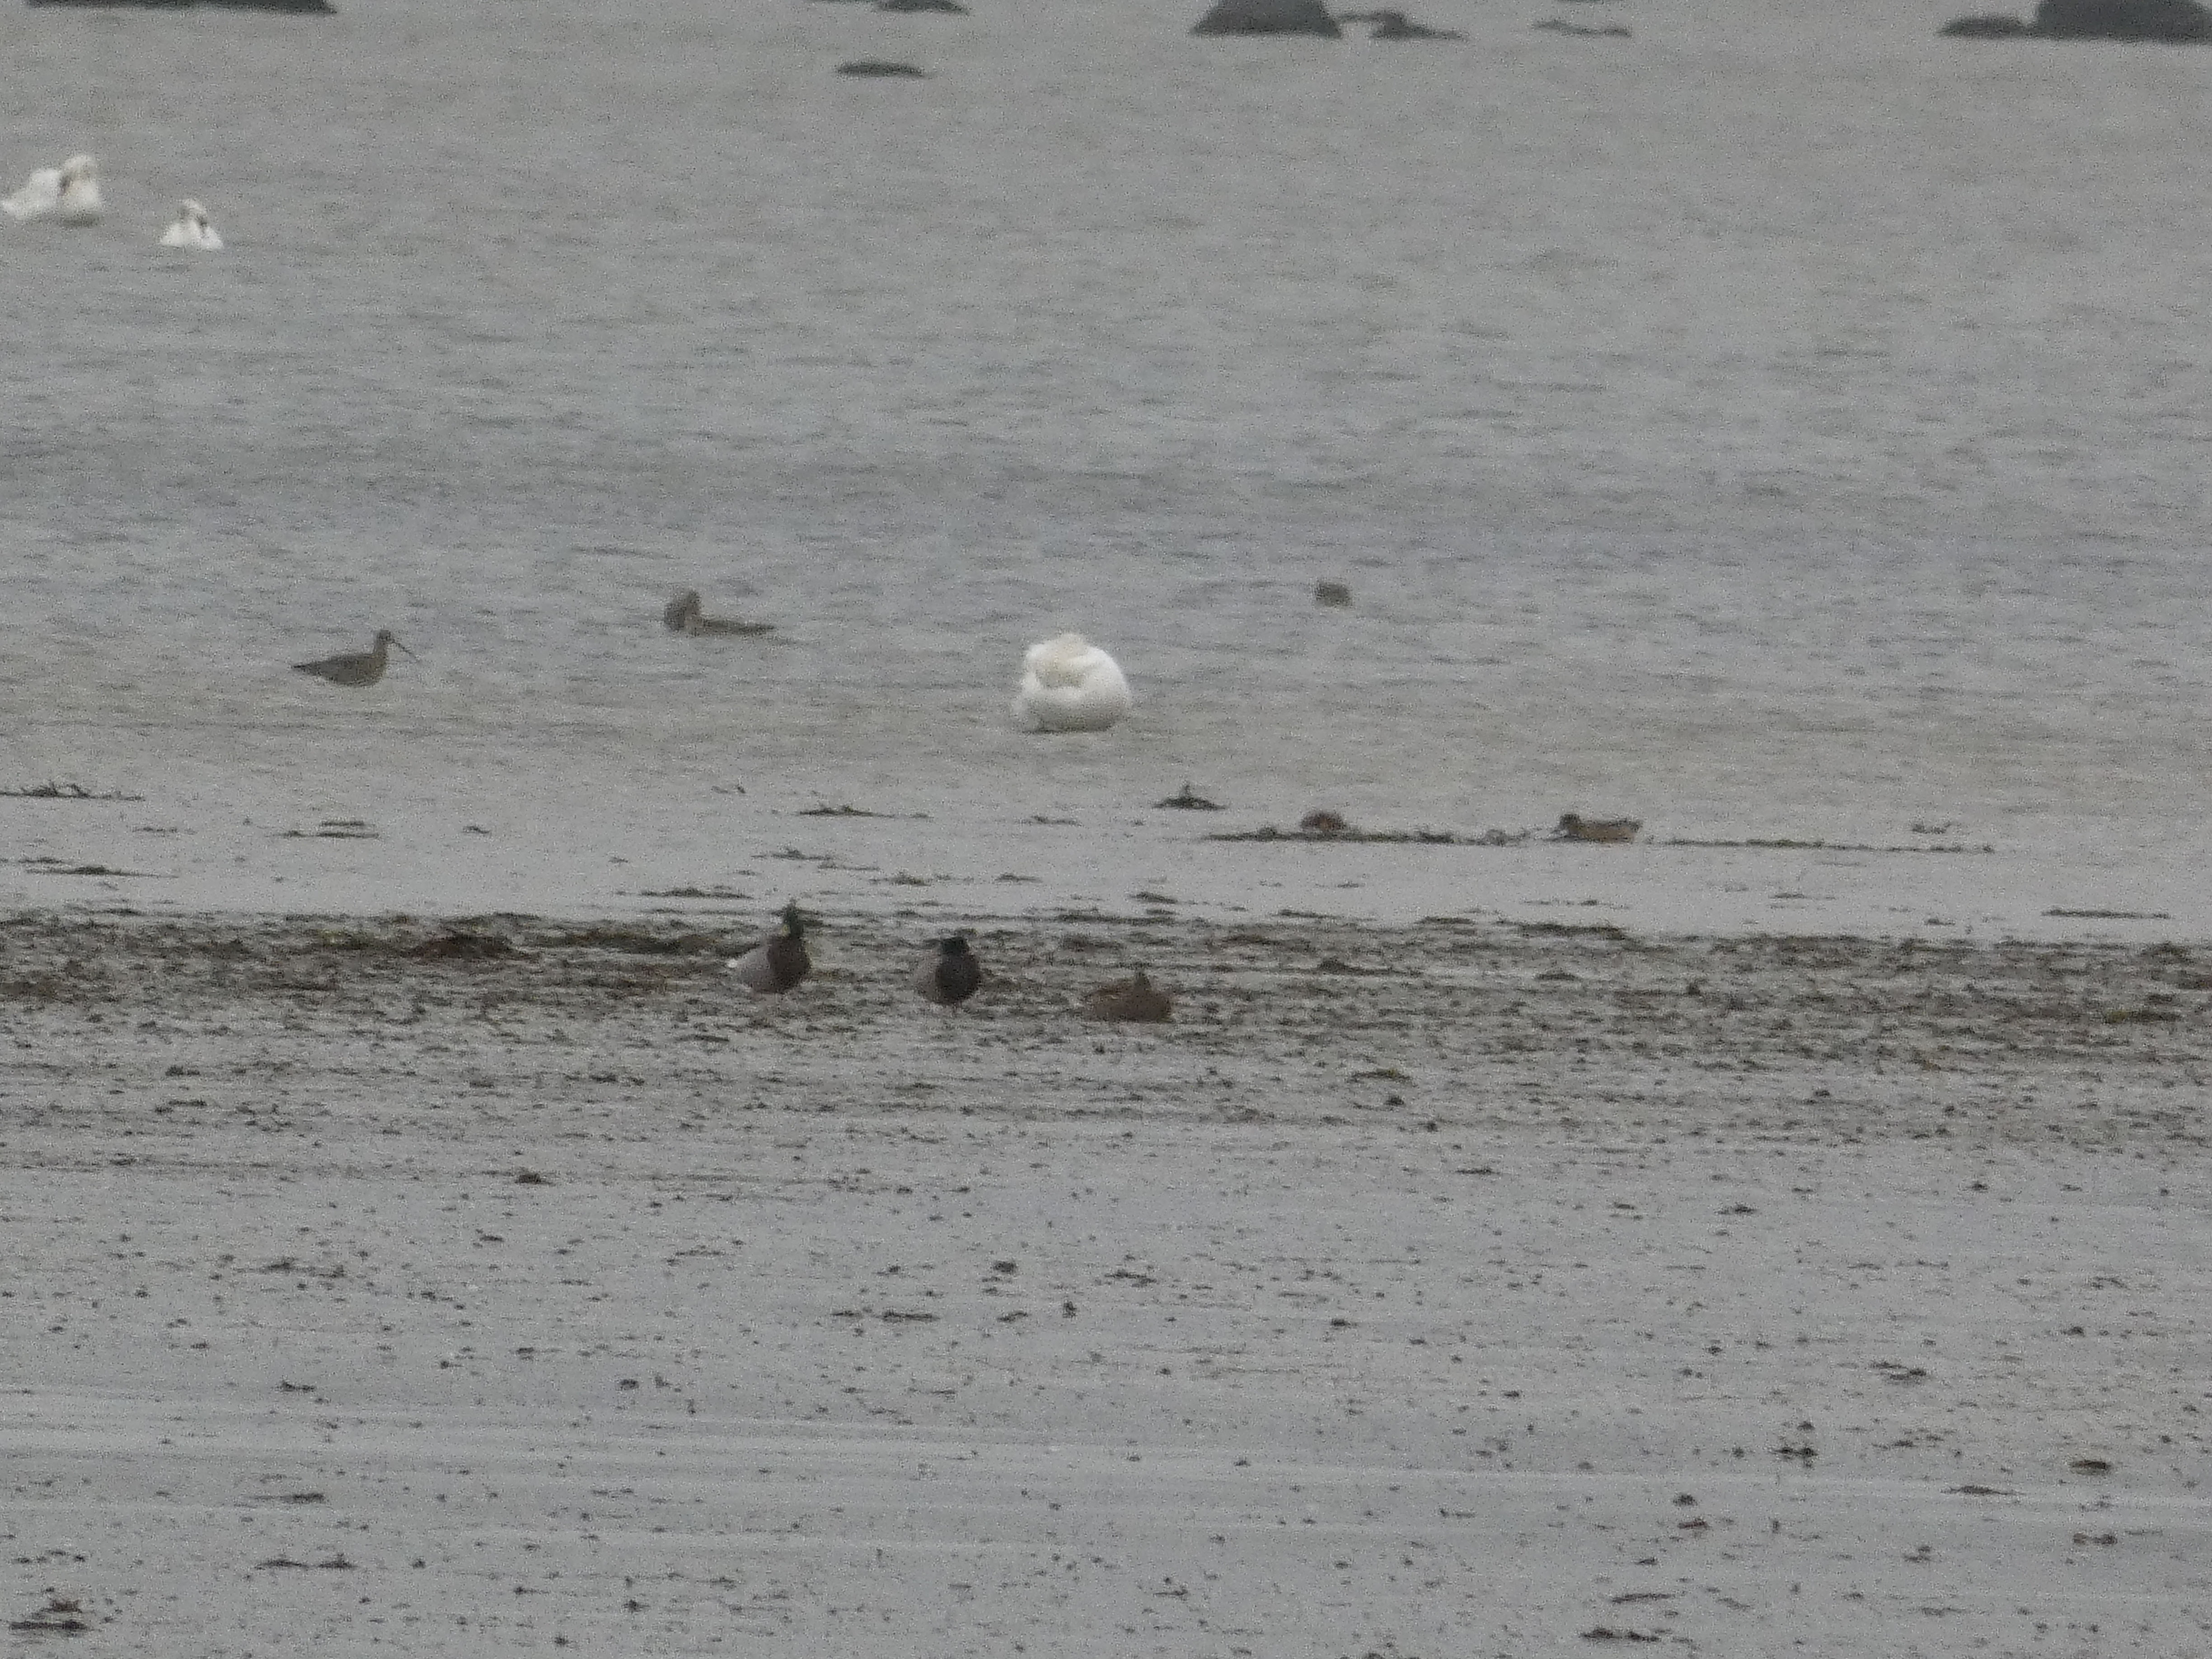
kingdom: Animalia
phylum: Chordata
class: Aves
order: Anseriformes
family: Anatidae
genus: Anas
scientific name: Anas platyrhynchos
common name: Gråand
